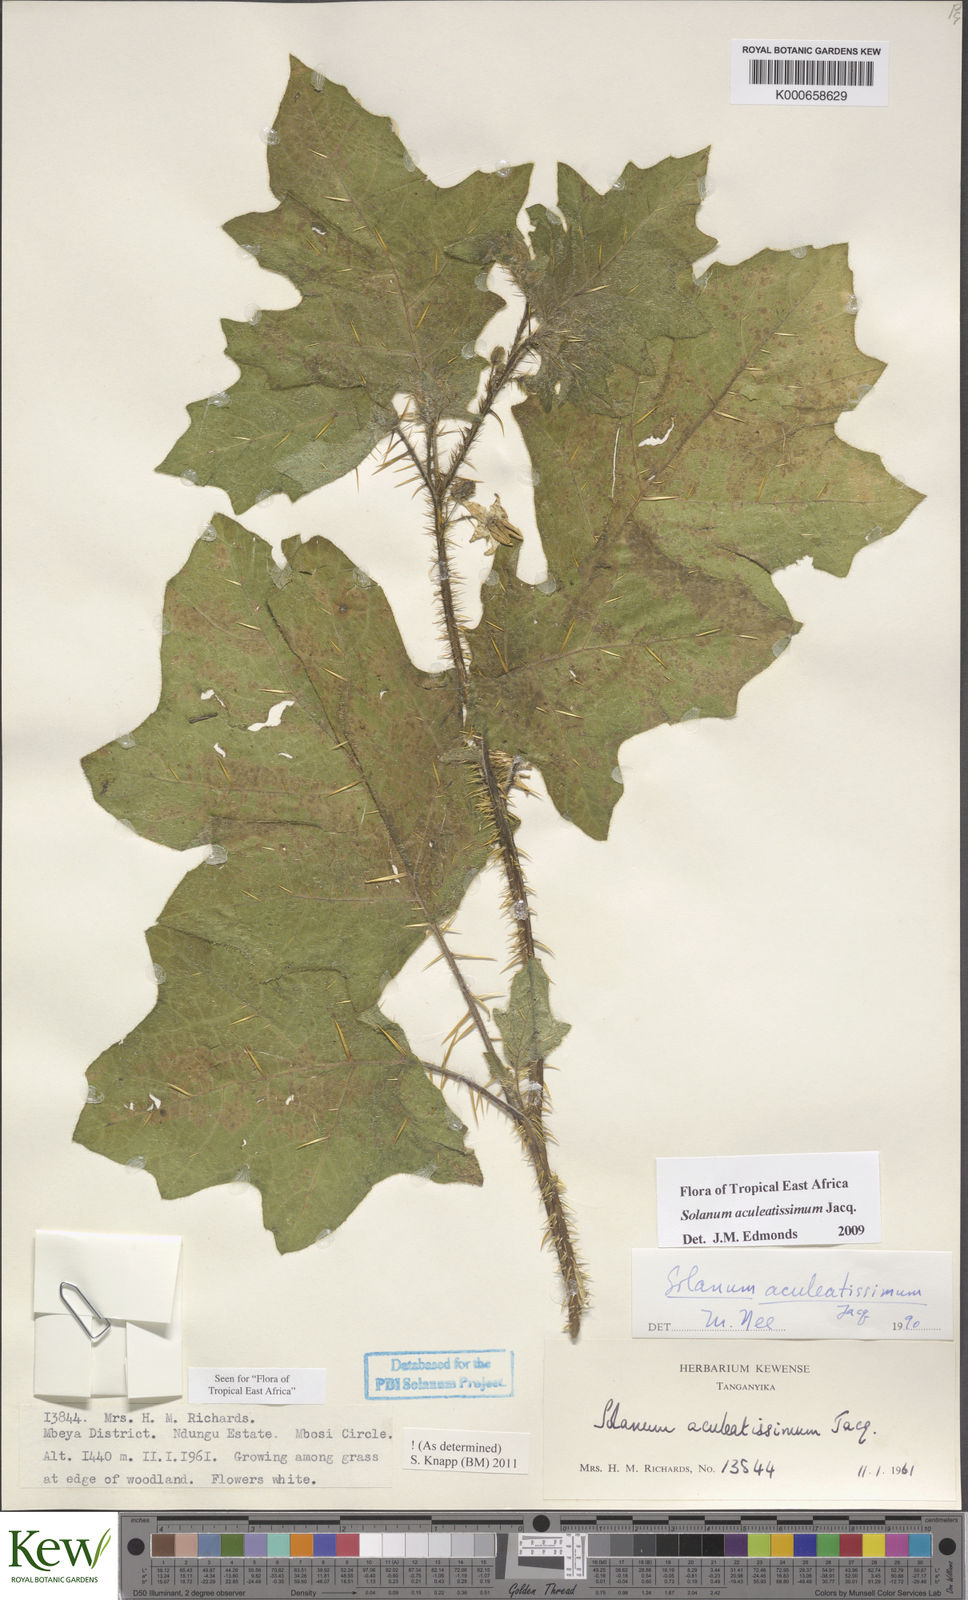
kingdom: Plantae
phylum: Tracheophyta
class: Magnoliopsida
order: Solanales
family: Solanaceae
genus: Solanum
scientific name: Solanum aculeatissimum
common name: Dutch eggplant
